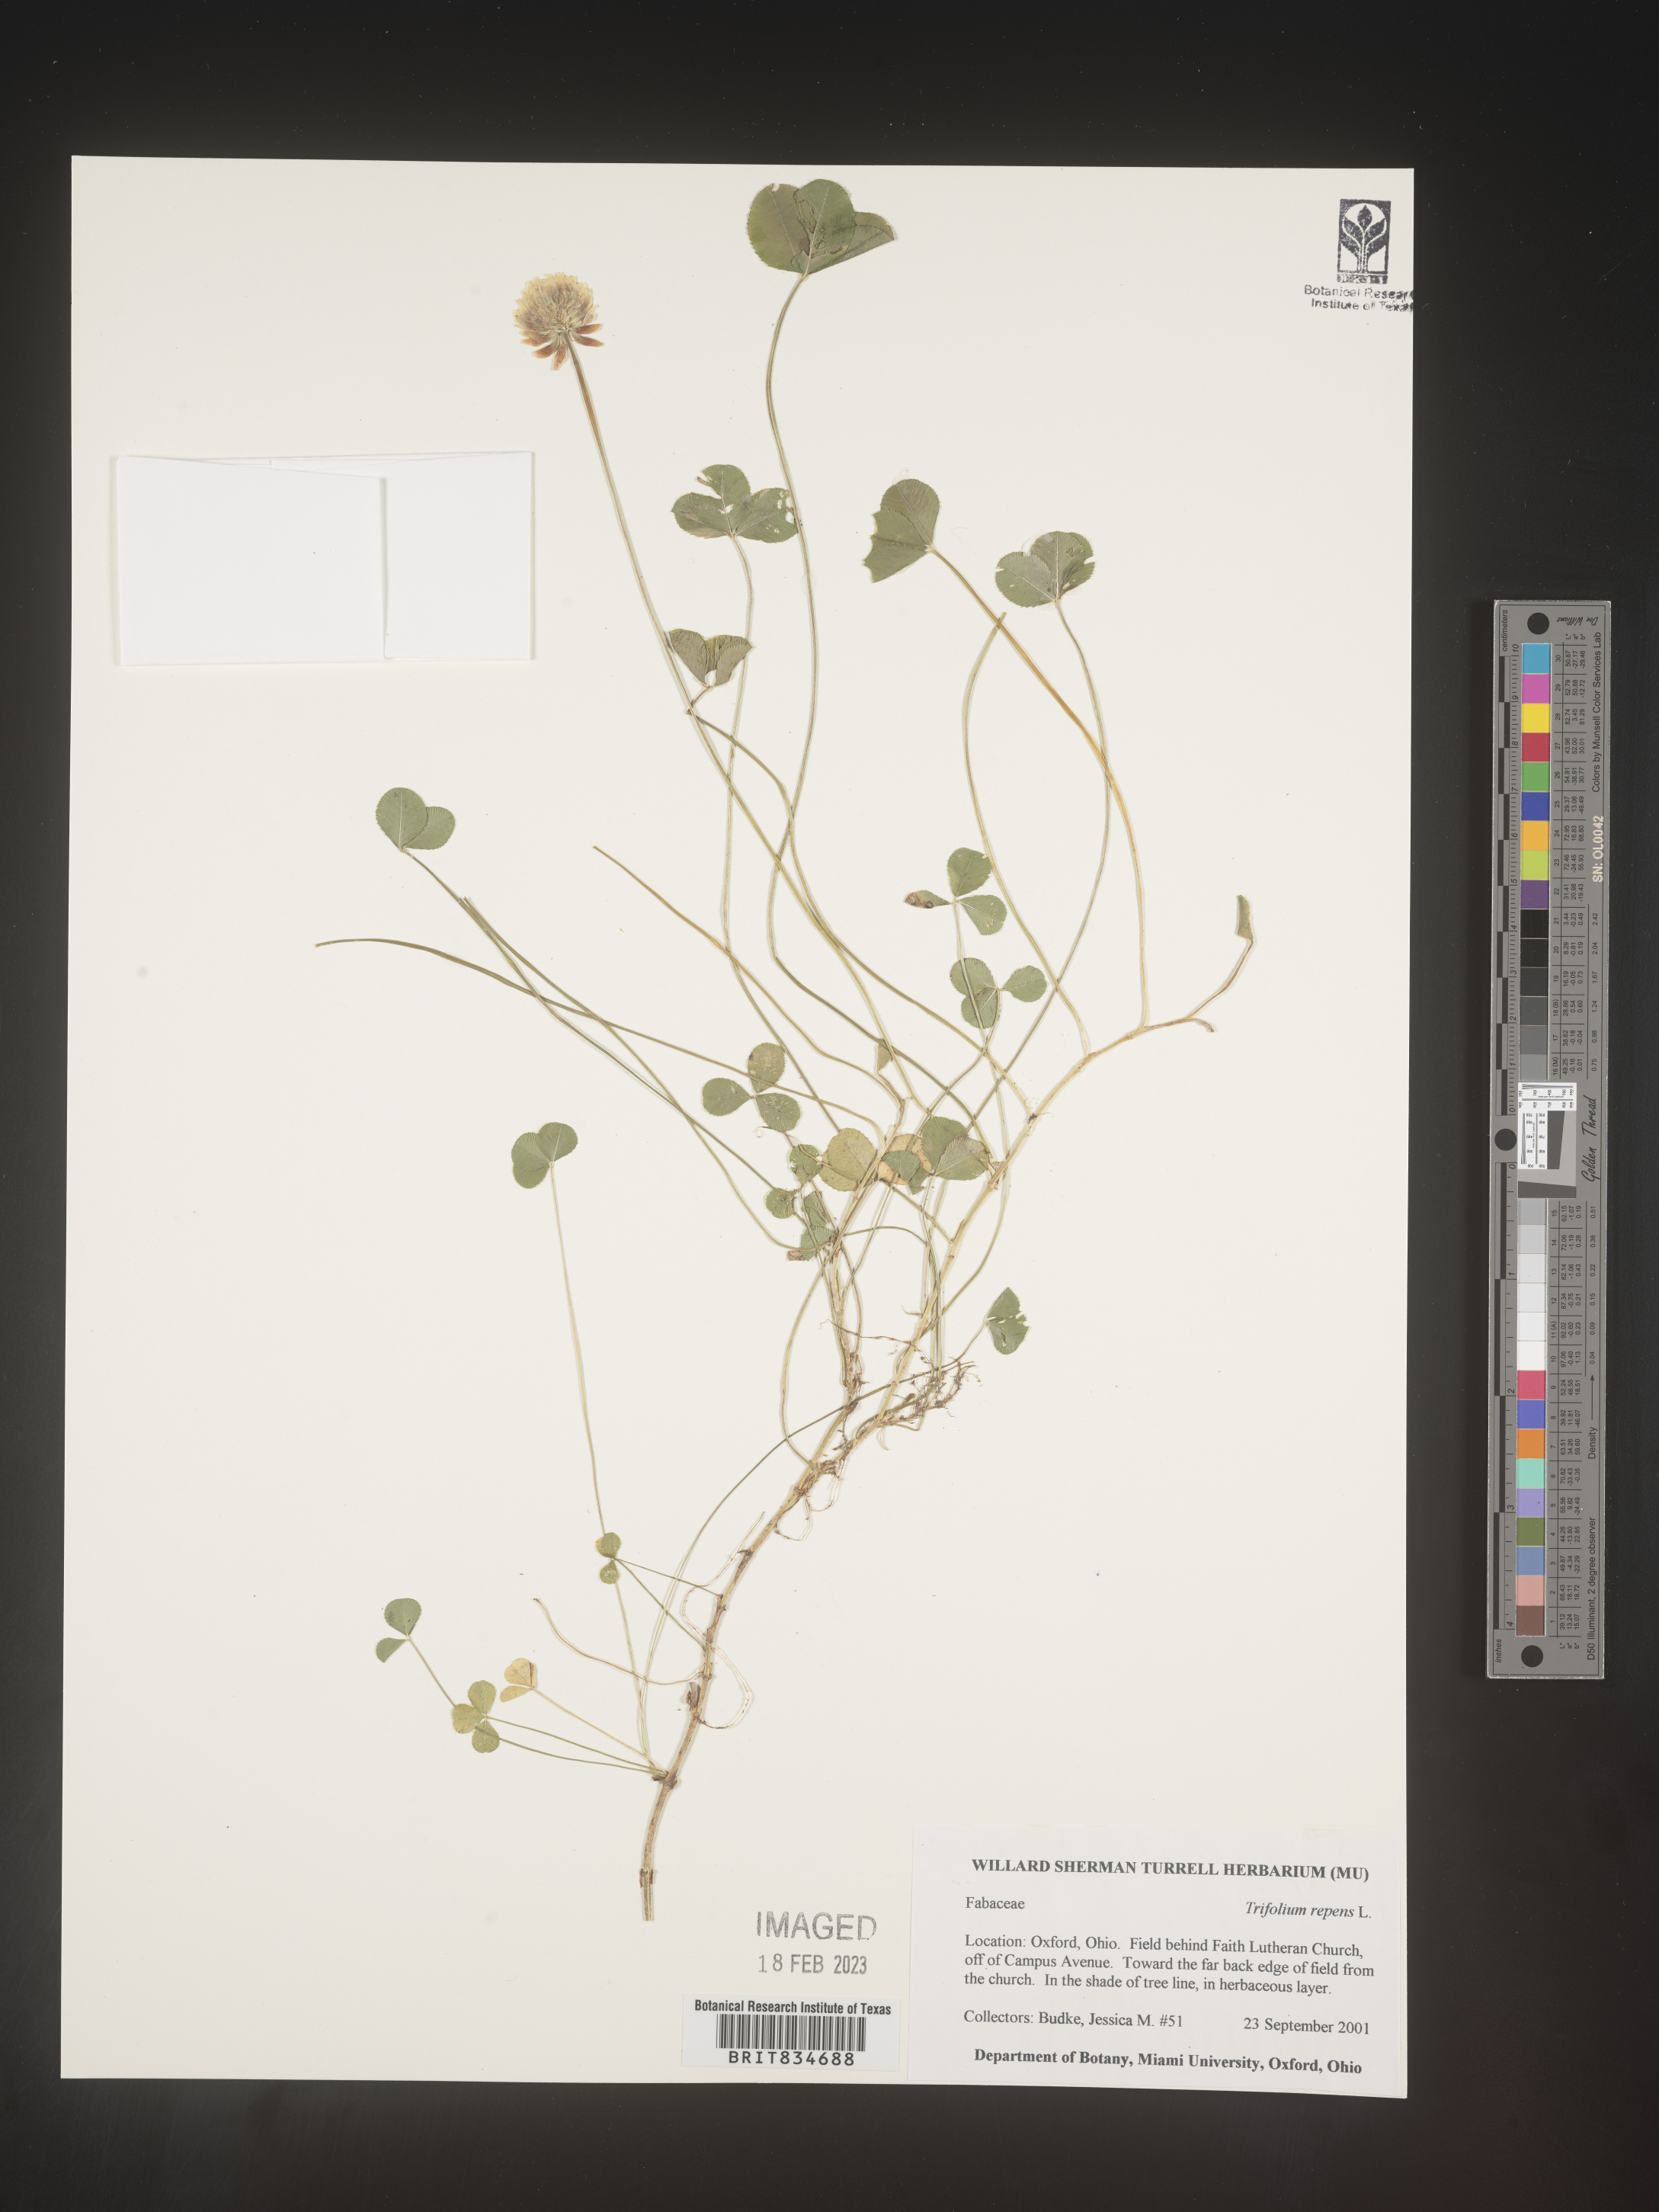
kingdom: Plantae
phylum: Tracheophyta
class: Magnoliopsida
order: Fabales
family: Fabaceae
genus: Trifolium
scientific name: Trifolium repens
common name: White clover
